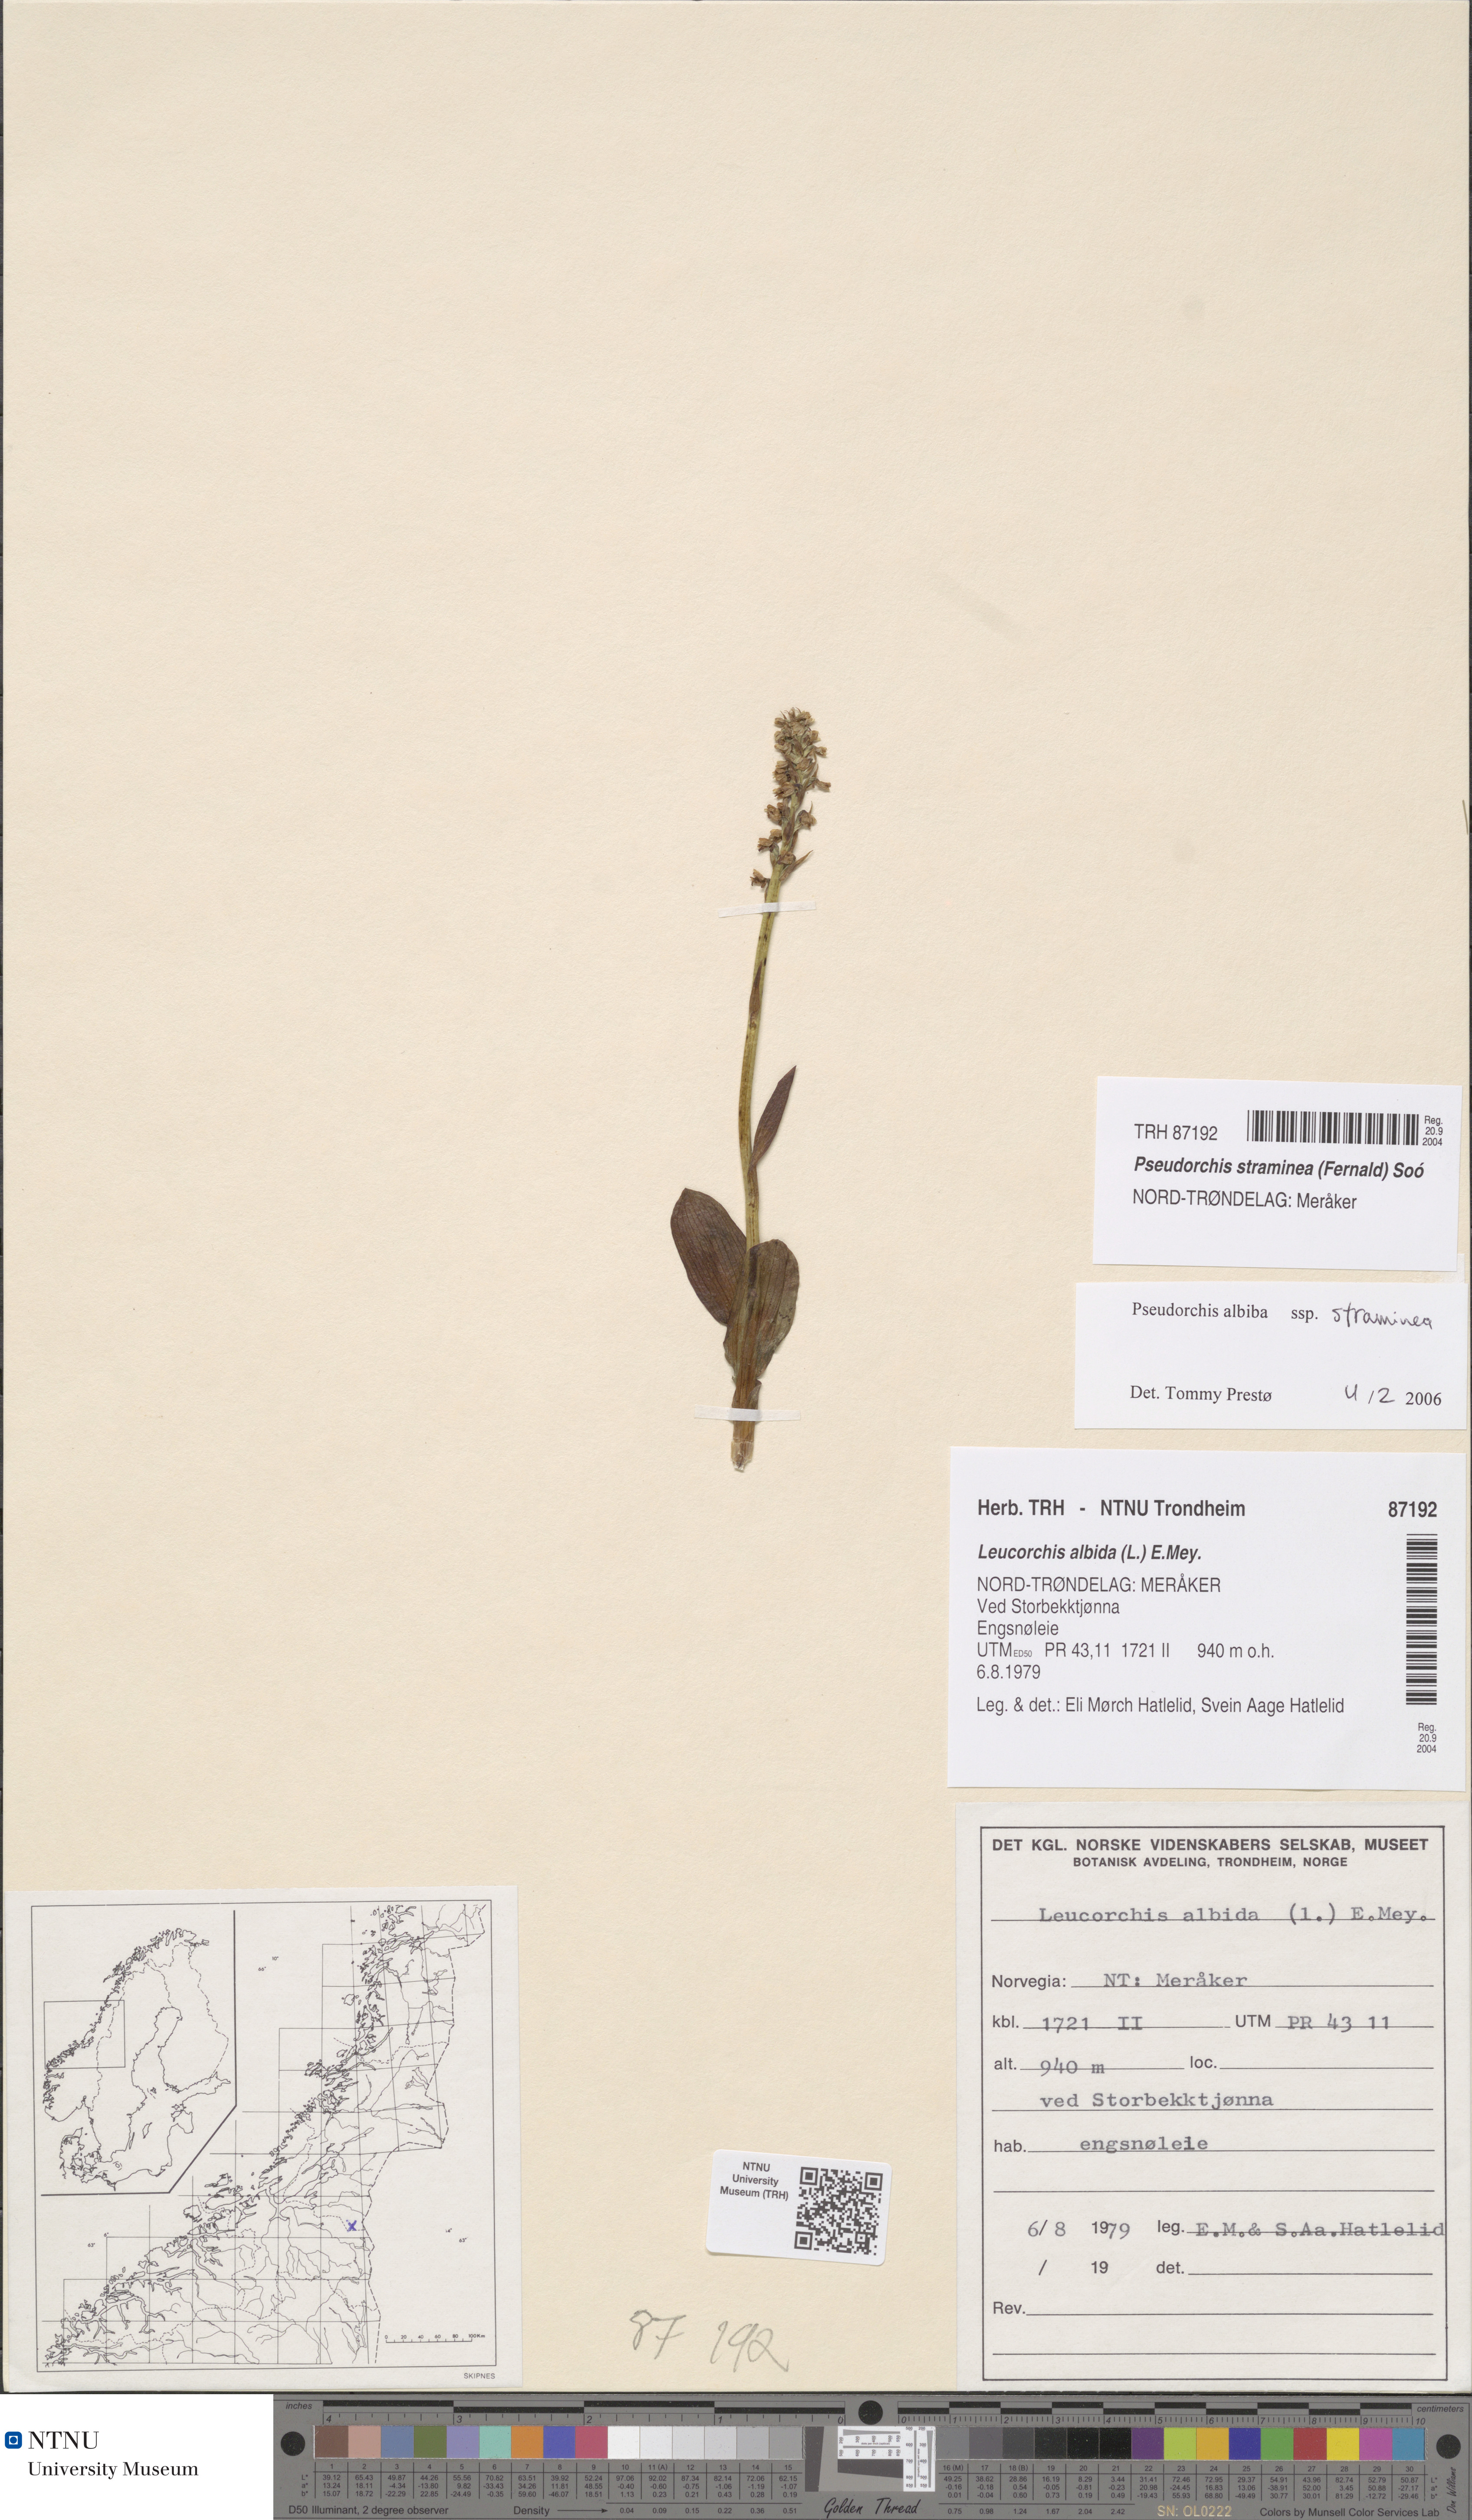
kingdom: Plantae
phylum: Tracheophyta
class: Liliopsida
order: Asparagales
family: Orchidaceae
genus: Pseudorchis
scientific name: Pseudorchis straminea
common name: Vanilla-scented bog orchid
